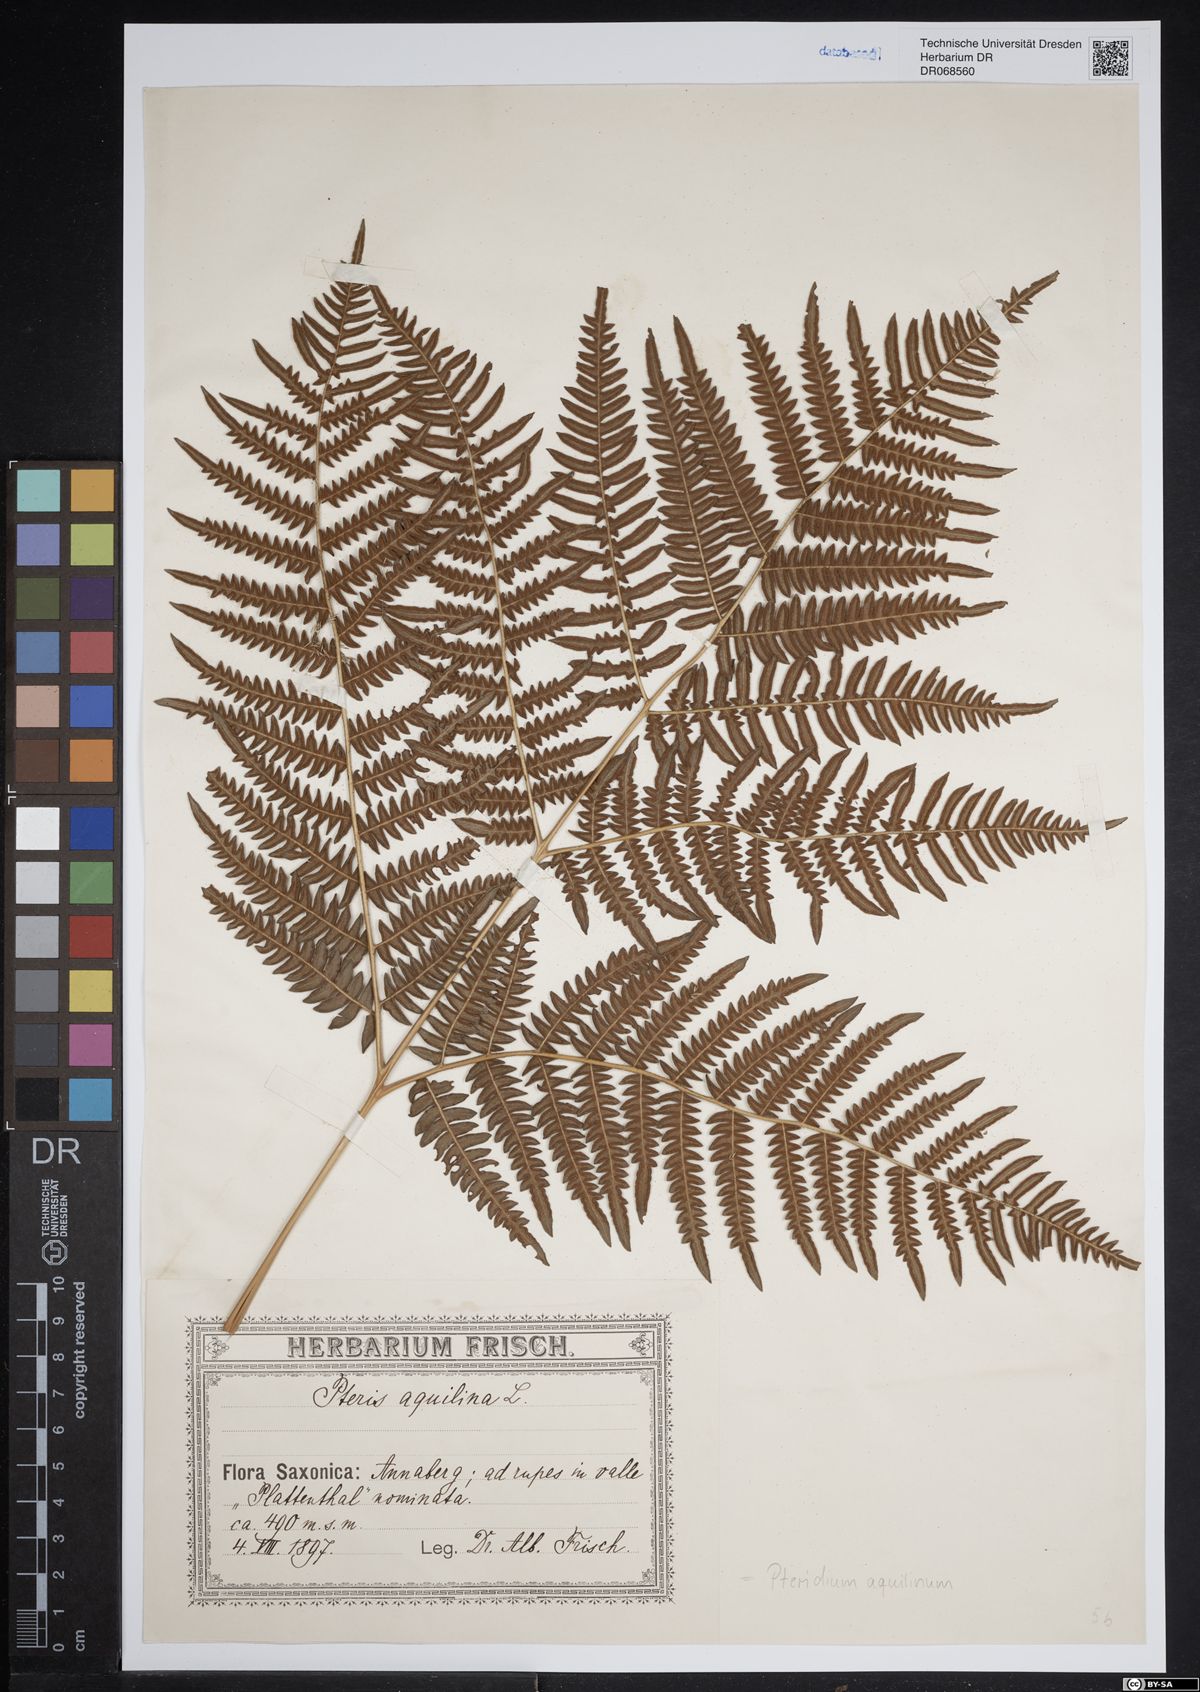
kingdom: Plantae
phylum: Tracheophyta
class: Polypodiopsida
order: Polypodiales
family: Dennstaedtiaceae
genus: Pteridium
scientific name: Pteridium aquilinum
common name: Bracken
